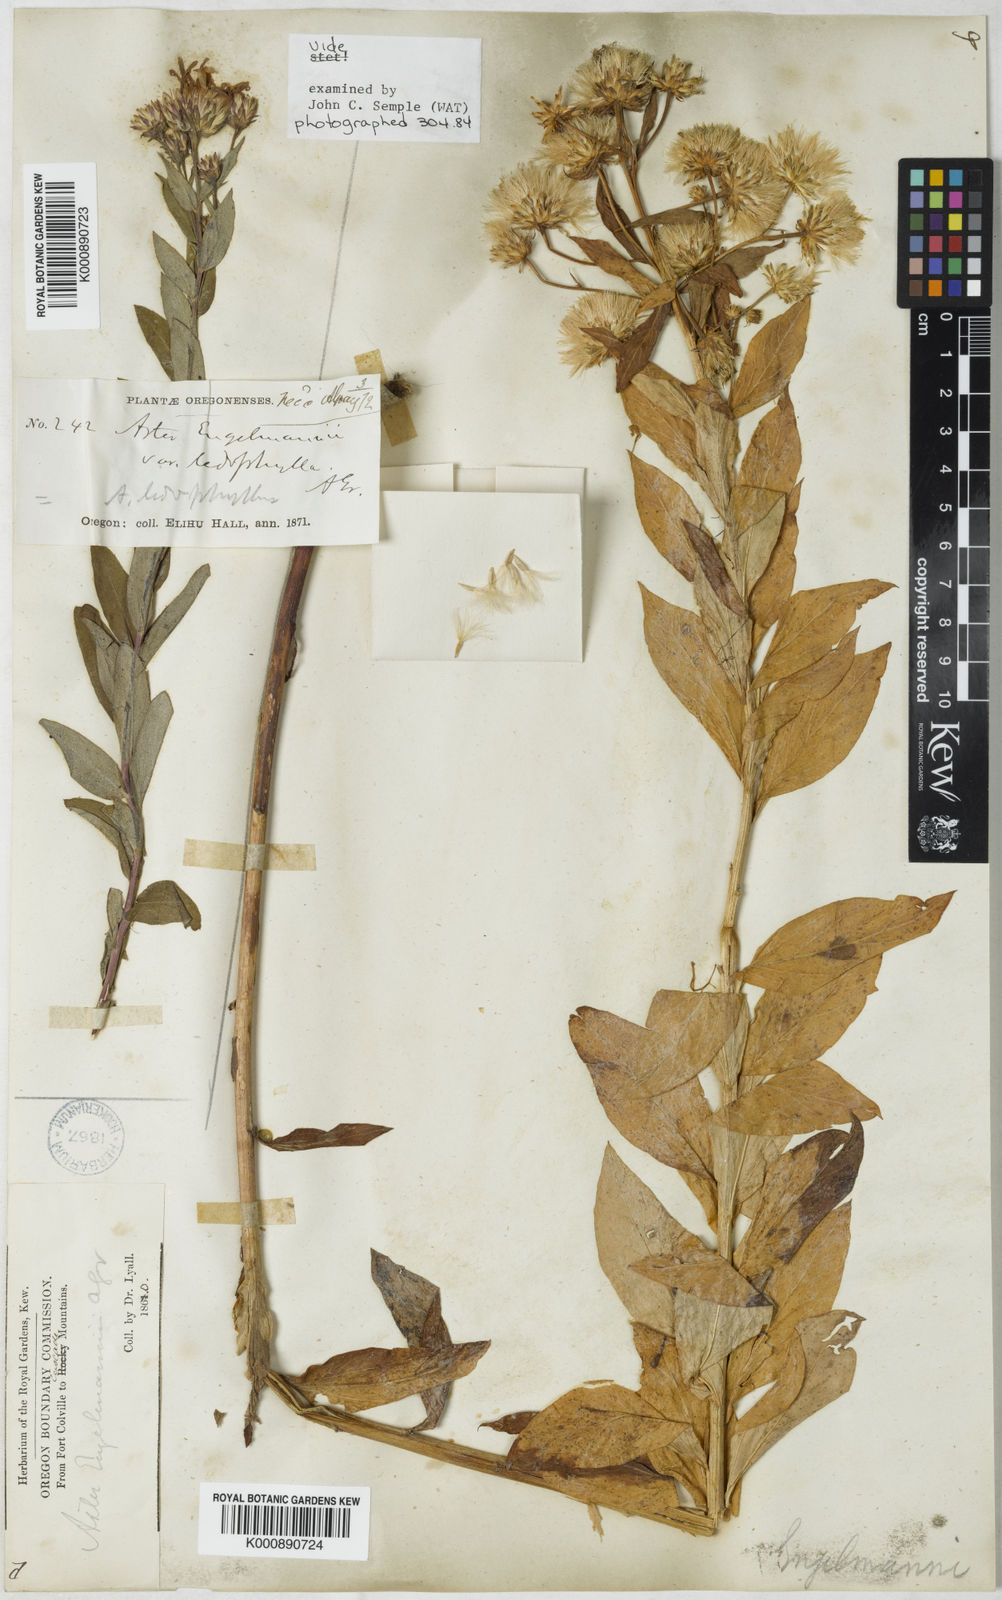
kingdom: Plantae
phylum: Tracheophyta
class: Magnoliopsida
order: Asterales
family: Asteraceae
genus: Eucephalus
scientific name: Eucephalus ledophyllus
